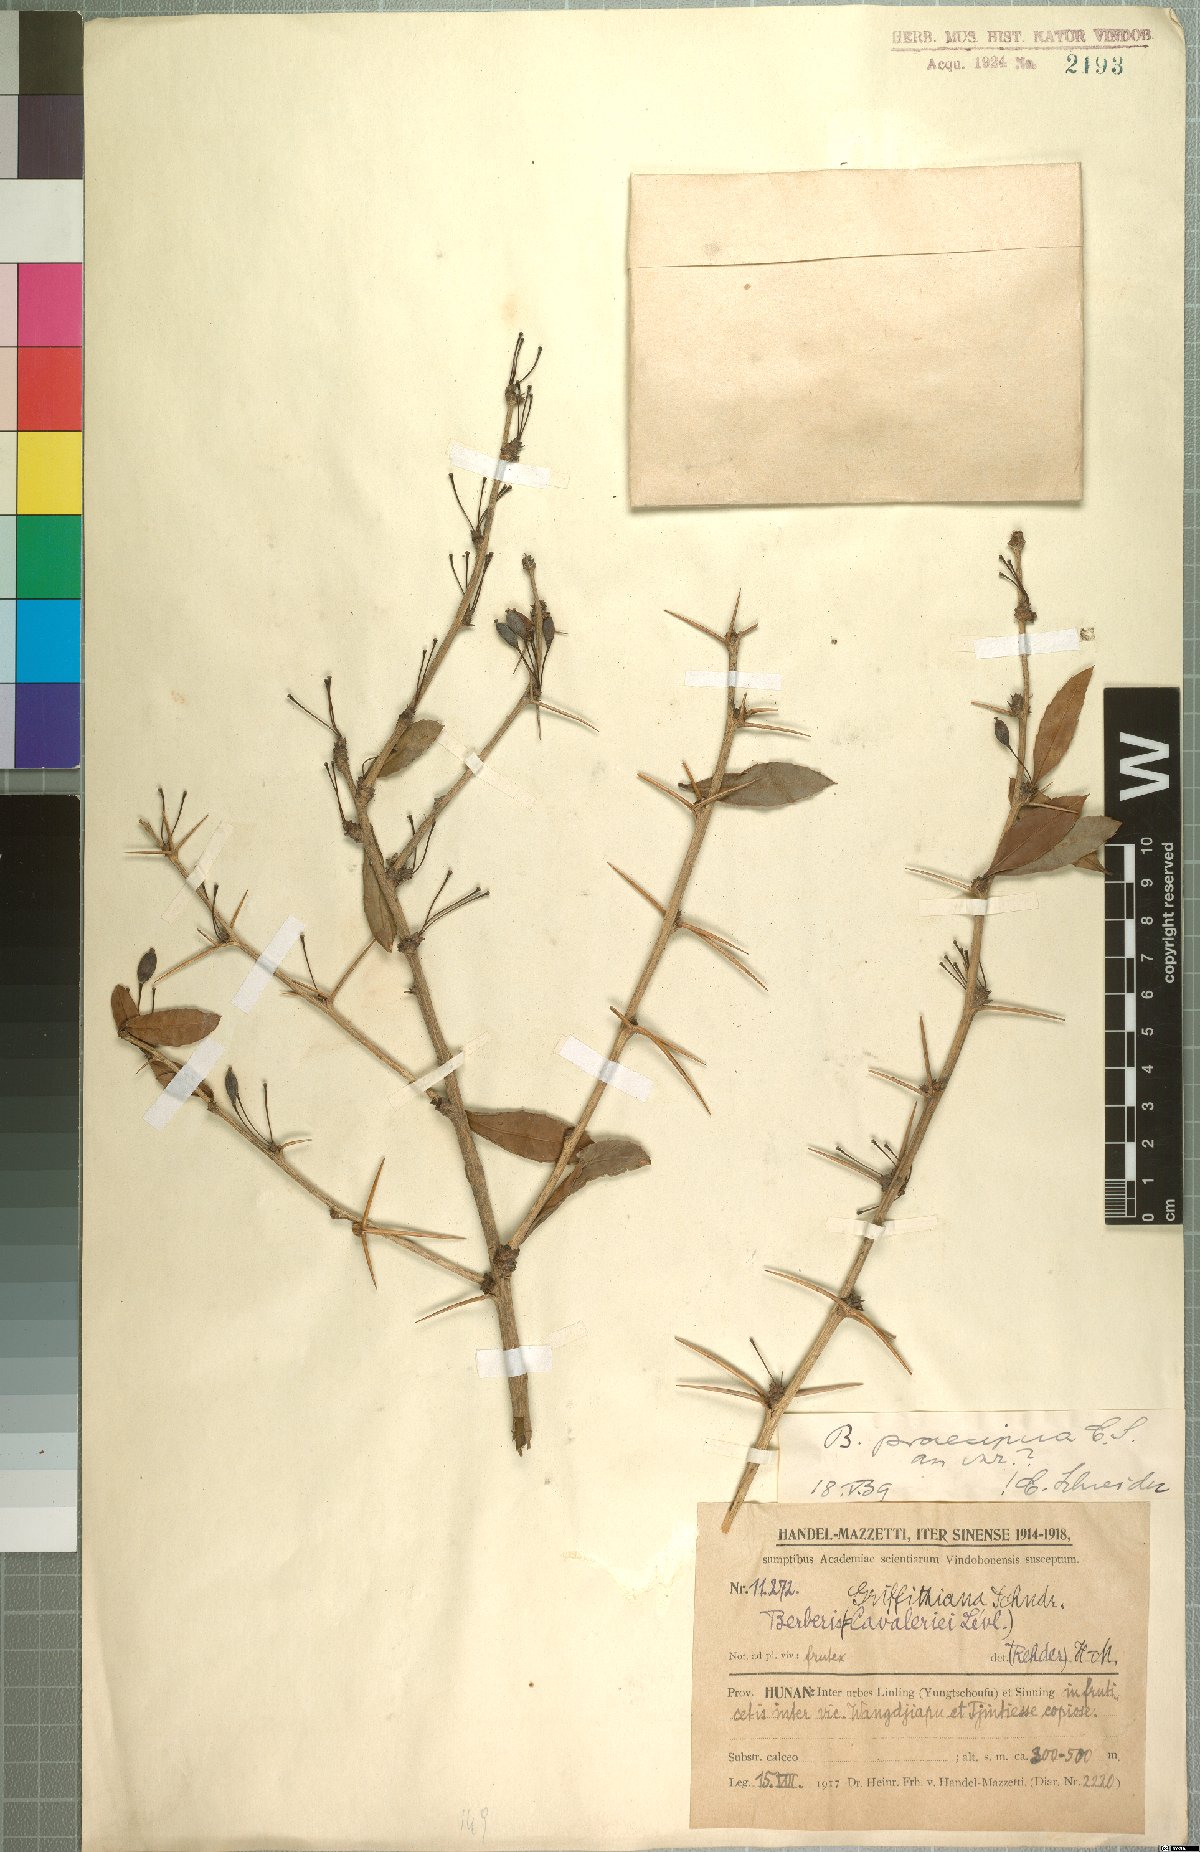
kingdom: Plantae
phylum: Tracheophyta
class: Magnoliopsida
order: Ranunculales
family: Berberidaceae
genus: Berberis
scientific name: Berberis praecipua
